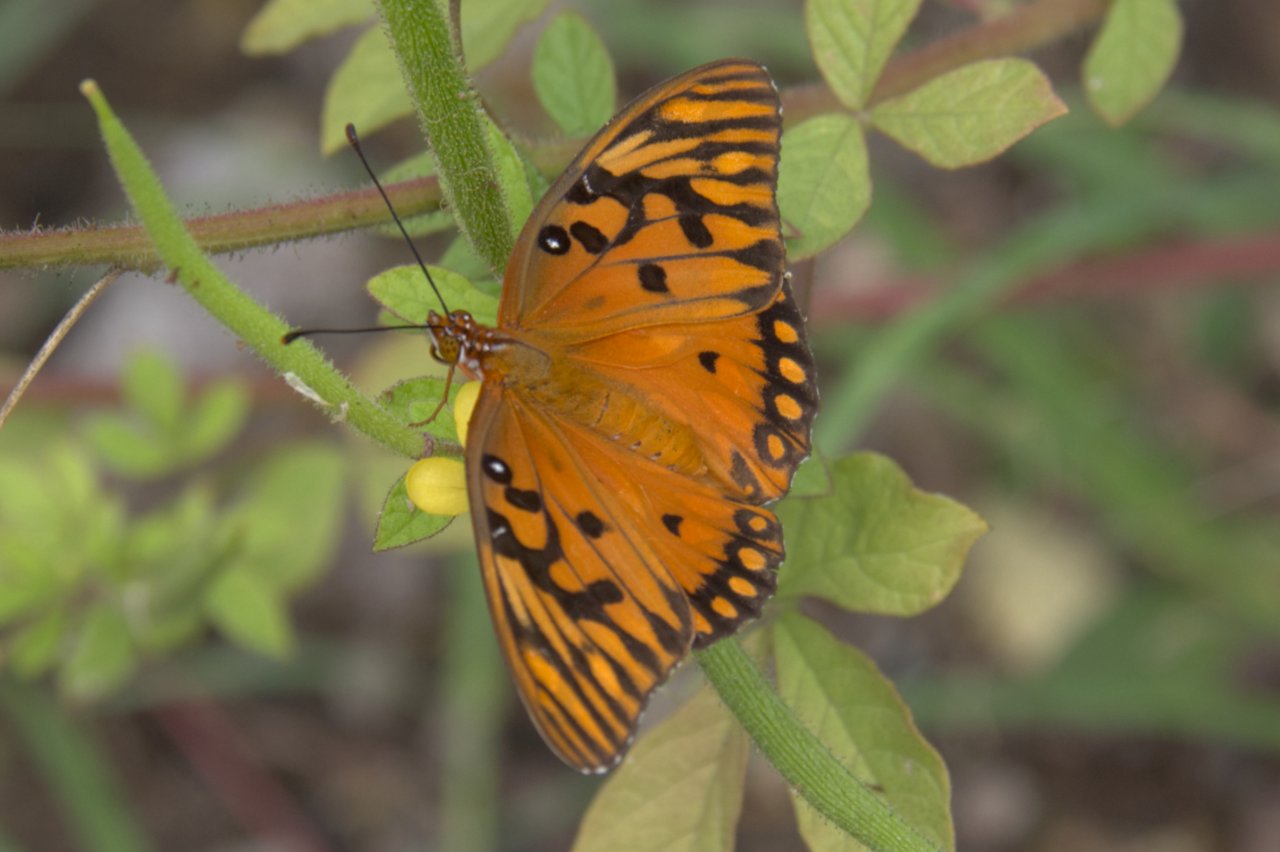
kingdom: Animalia
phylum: Arthropoda
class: Insecta
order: Lepidoptera
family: Nymphalidae
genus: Dione
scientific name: Dione vanillae
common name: Gulf Fritillary
